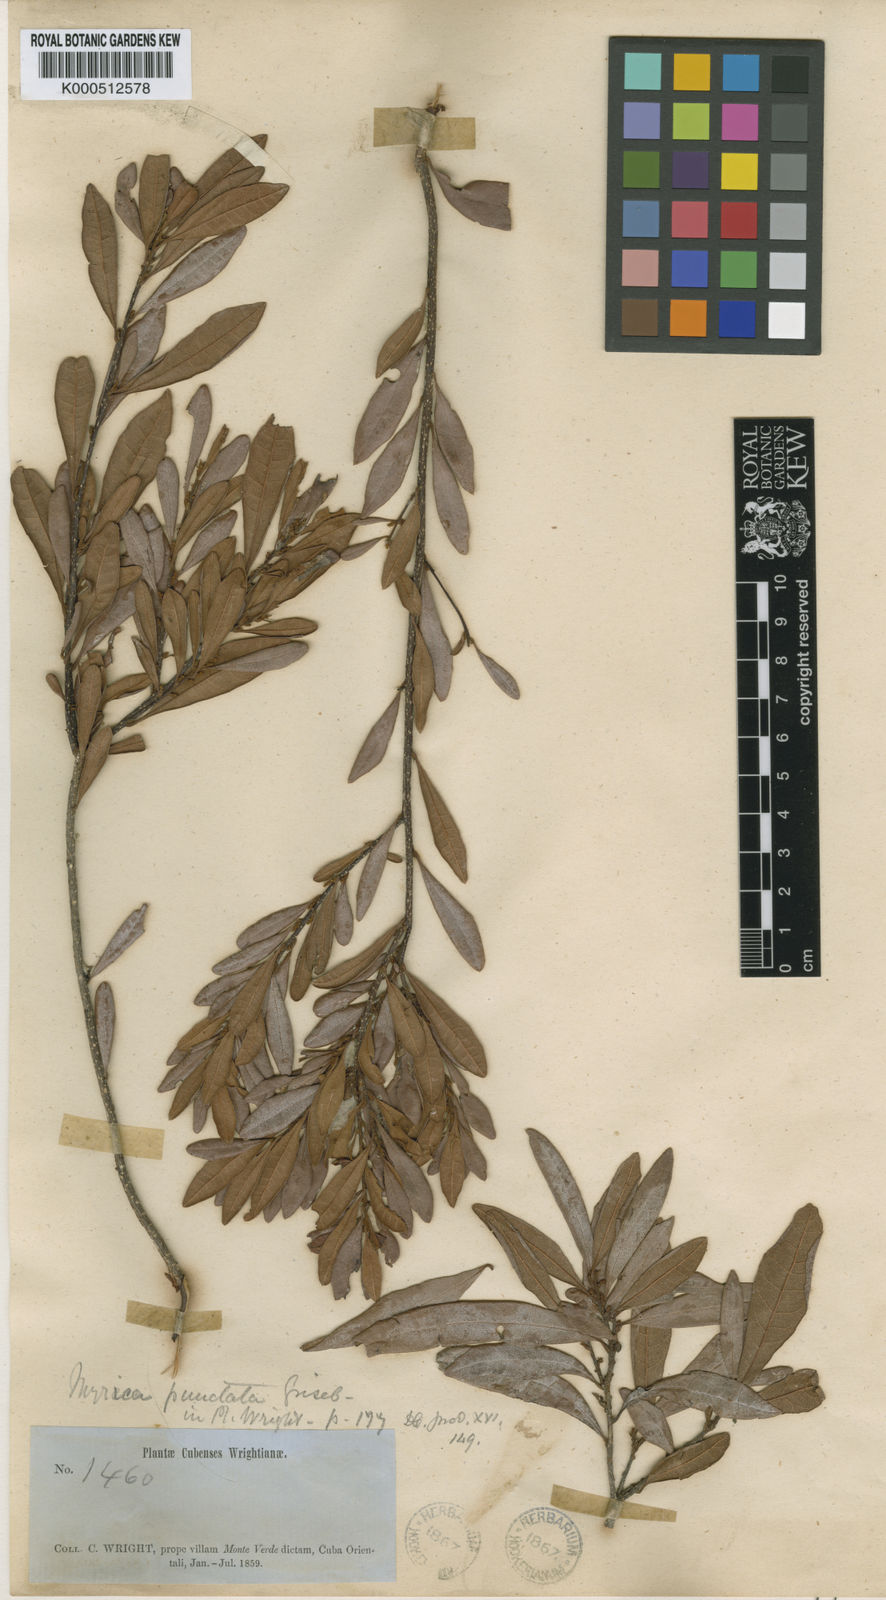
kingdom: Plantae
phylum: Tracheophyta
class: Magnoliopsida
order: Fagales
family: Myricaceae
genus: Morella
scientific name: Morella punctata
